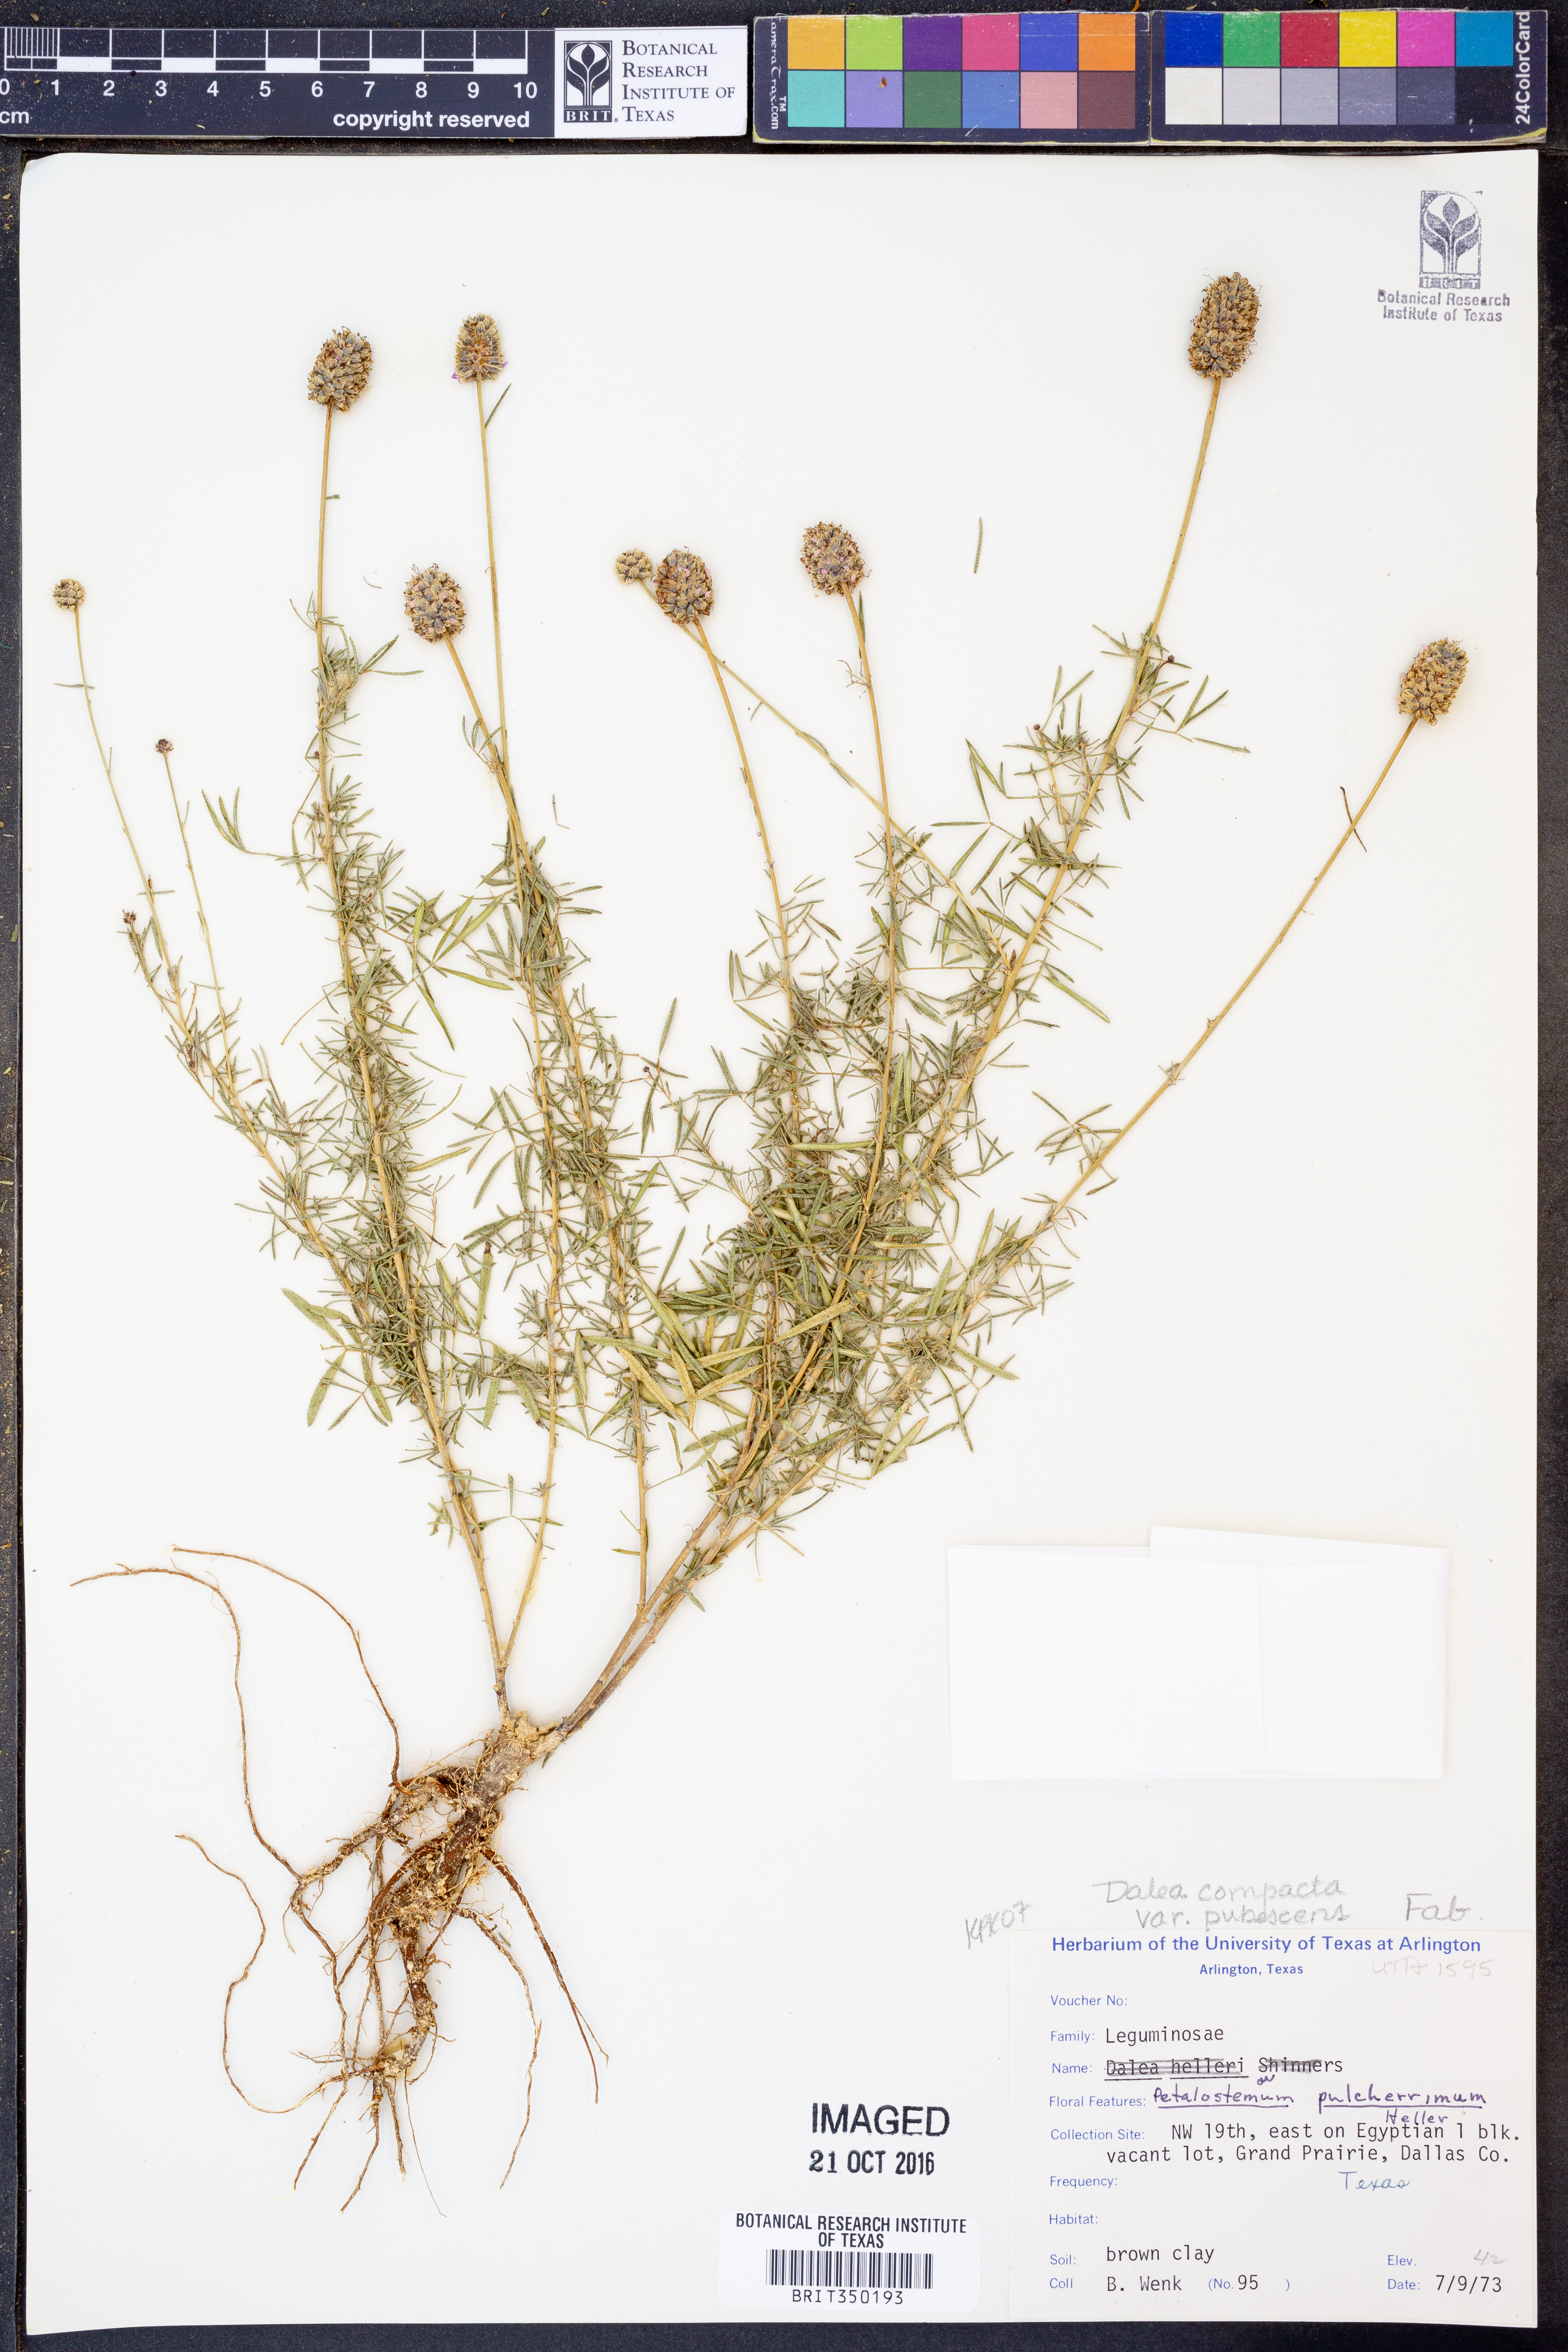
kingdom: Plantae
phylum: Tracheophyta
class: Magnoliopsida
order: Fabales
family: Fabaceae
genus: Dalea
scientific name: Dalea compacta
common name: Compact prairie-clover
